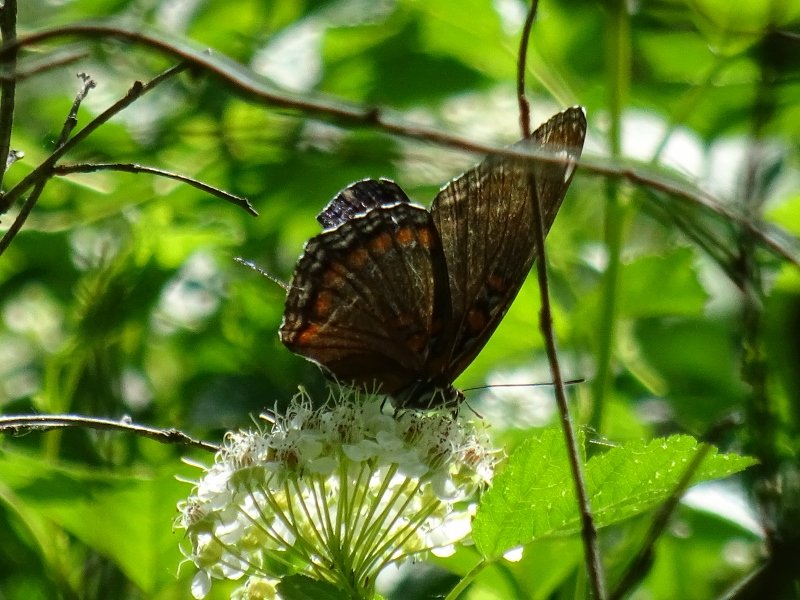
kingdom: Animalia
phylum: Arthropoda
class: Insecta
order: Lepidoptera
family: Nymphalidae
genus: Limenitis
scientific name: Limenitis astyanax
